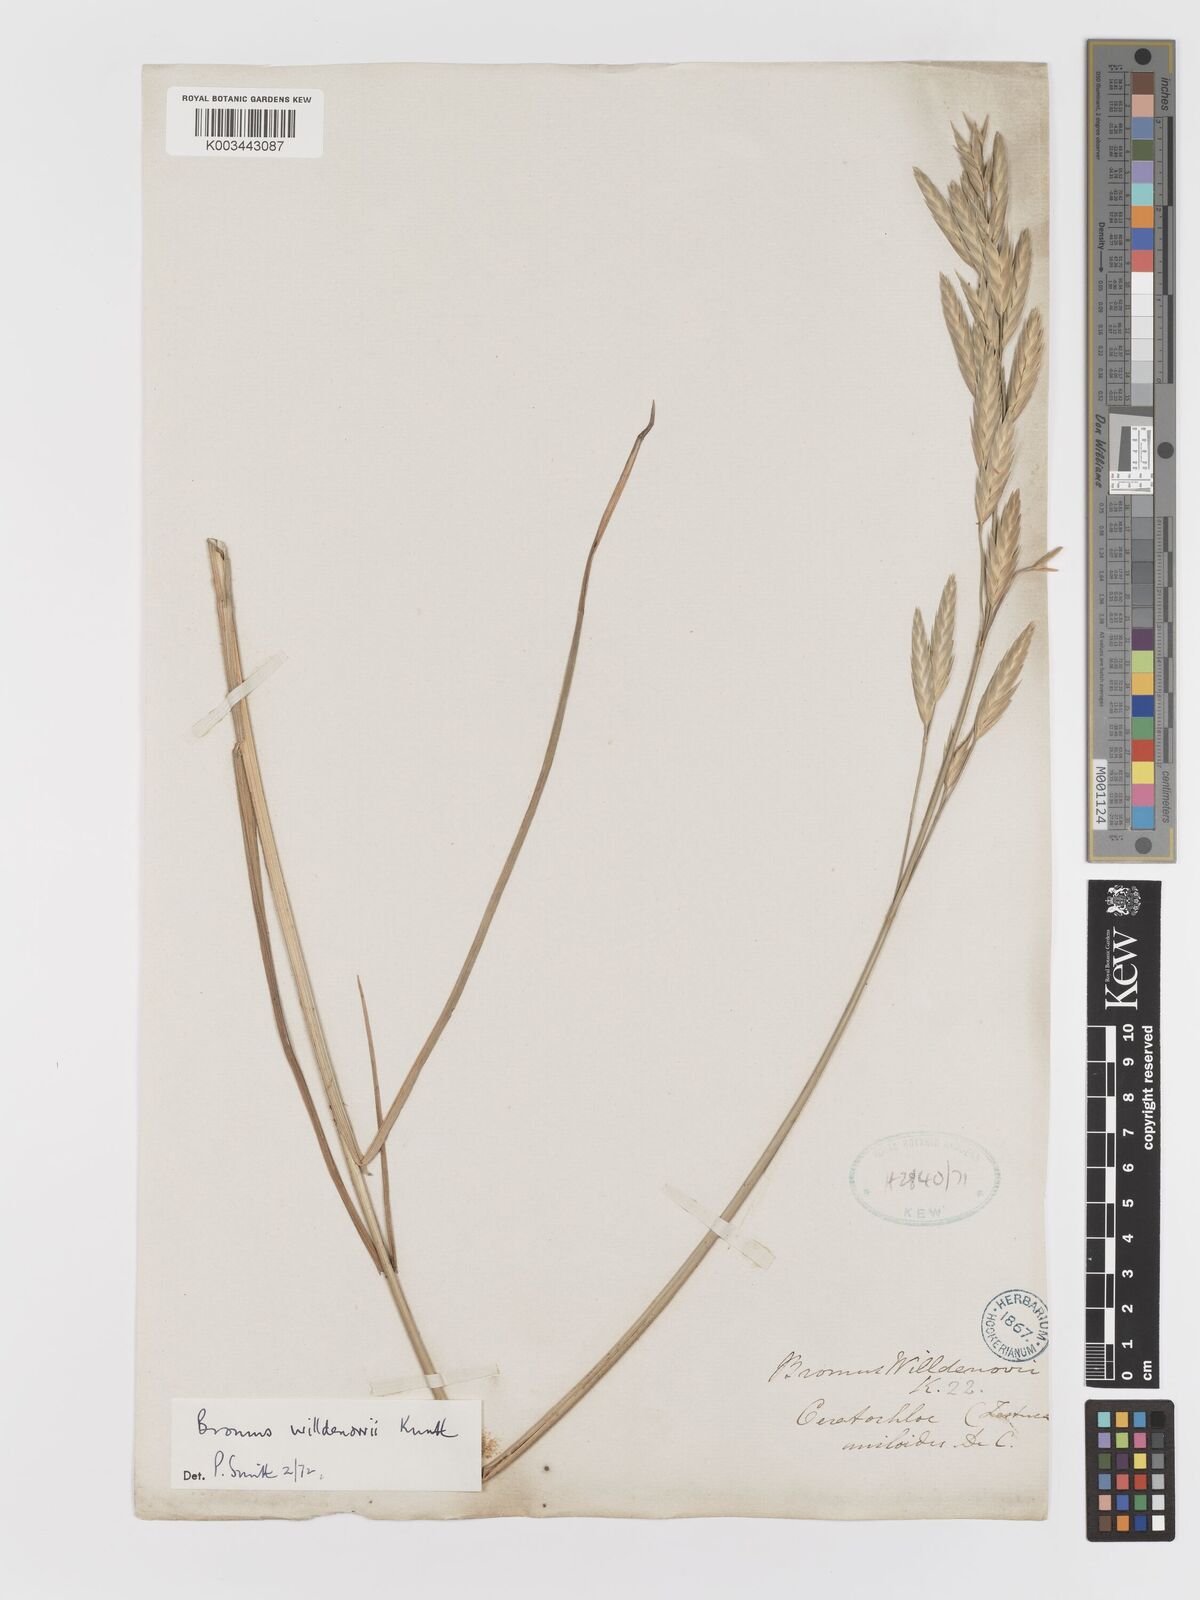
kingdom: Plantae
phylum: Tracheophyta
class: Liliopsida
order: Poales
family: Poaceae
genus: Bromus
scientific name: Bromus catharticus
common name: Rescuegrass
